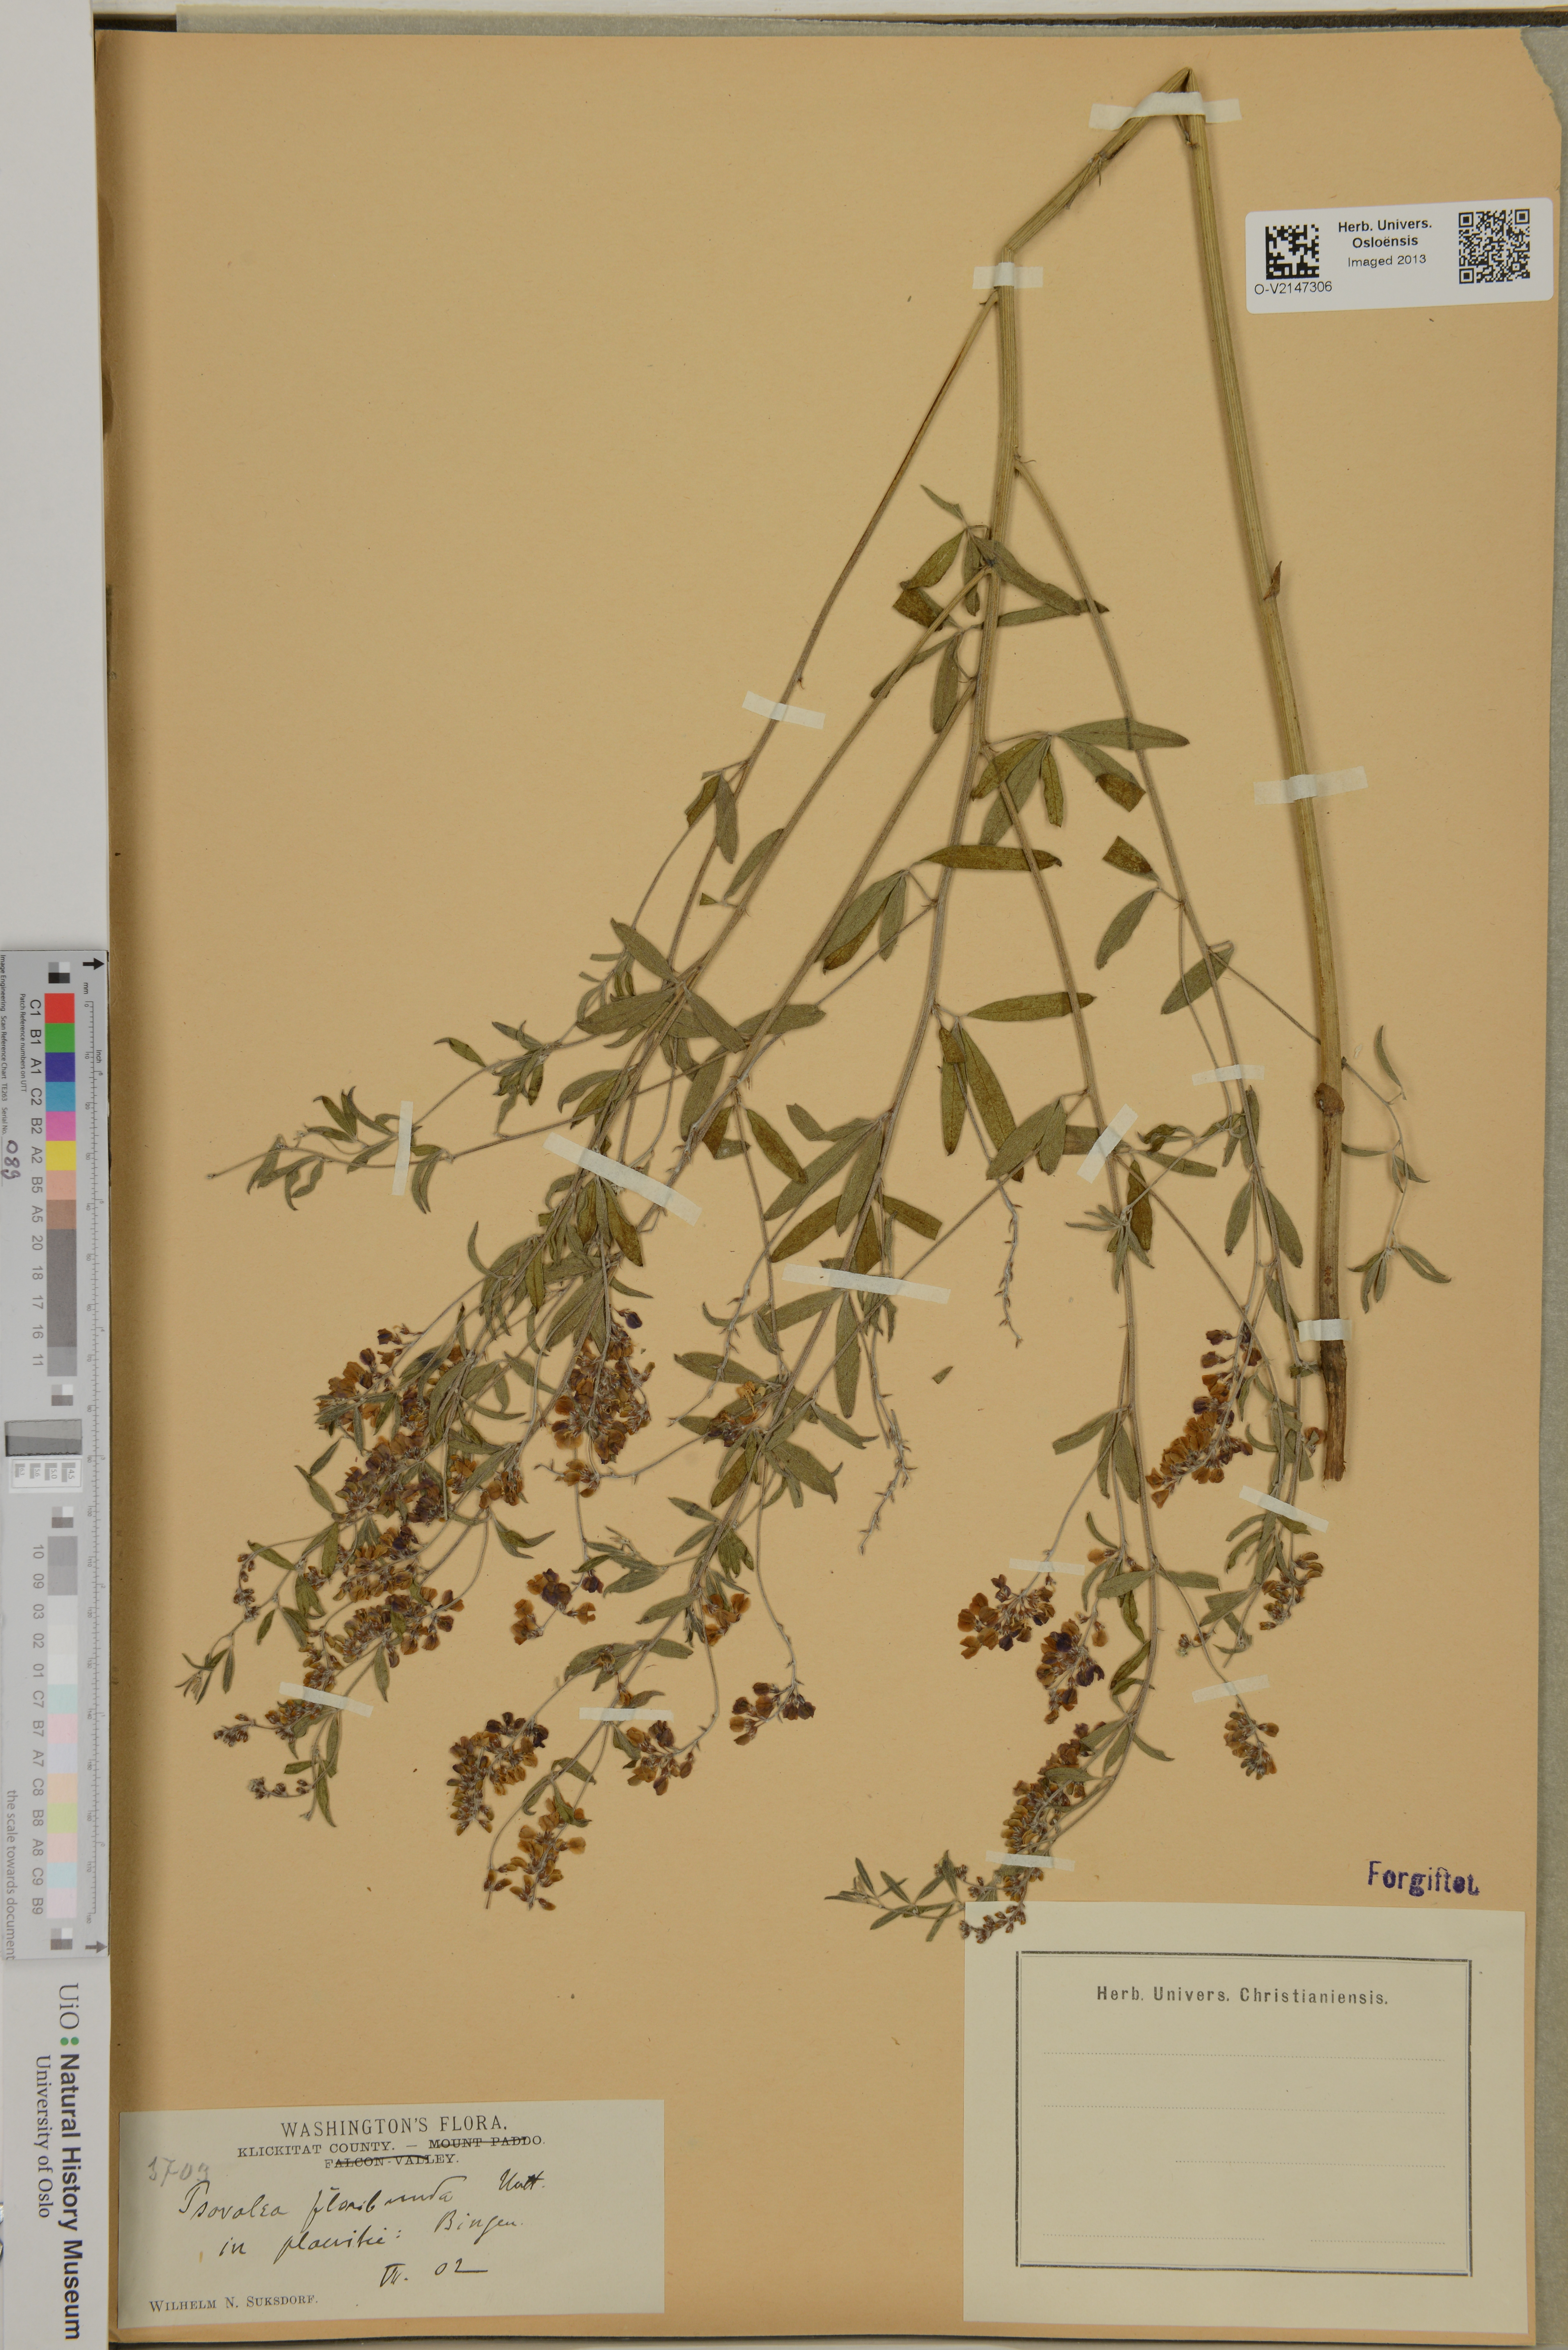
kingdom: Plantae
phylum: Tracheophyta
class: Magnoliopsida
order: Fabales
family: Fabaceae
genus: Pediomelum
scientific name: Pediomelum tenuiflorum
